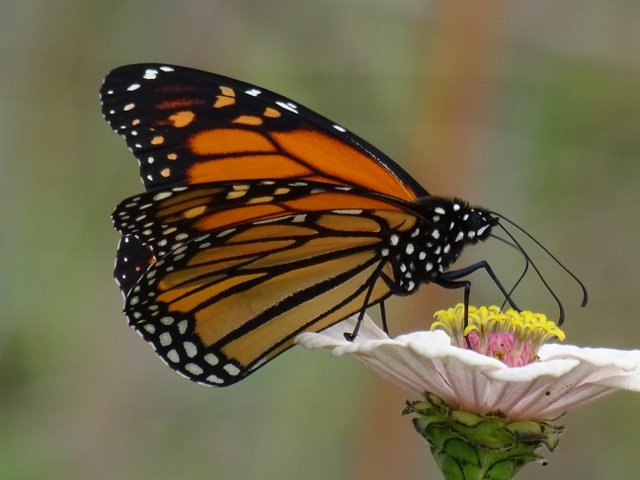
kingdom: Animalia
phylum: Arthropoda
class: Insecta
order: Lepidoptera
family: Nymphalidae
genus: Danaus
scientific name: Danaus plexippus
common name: Monarch
